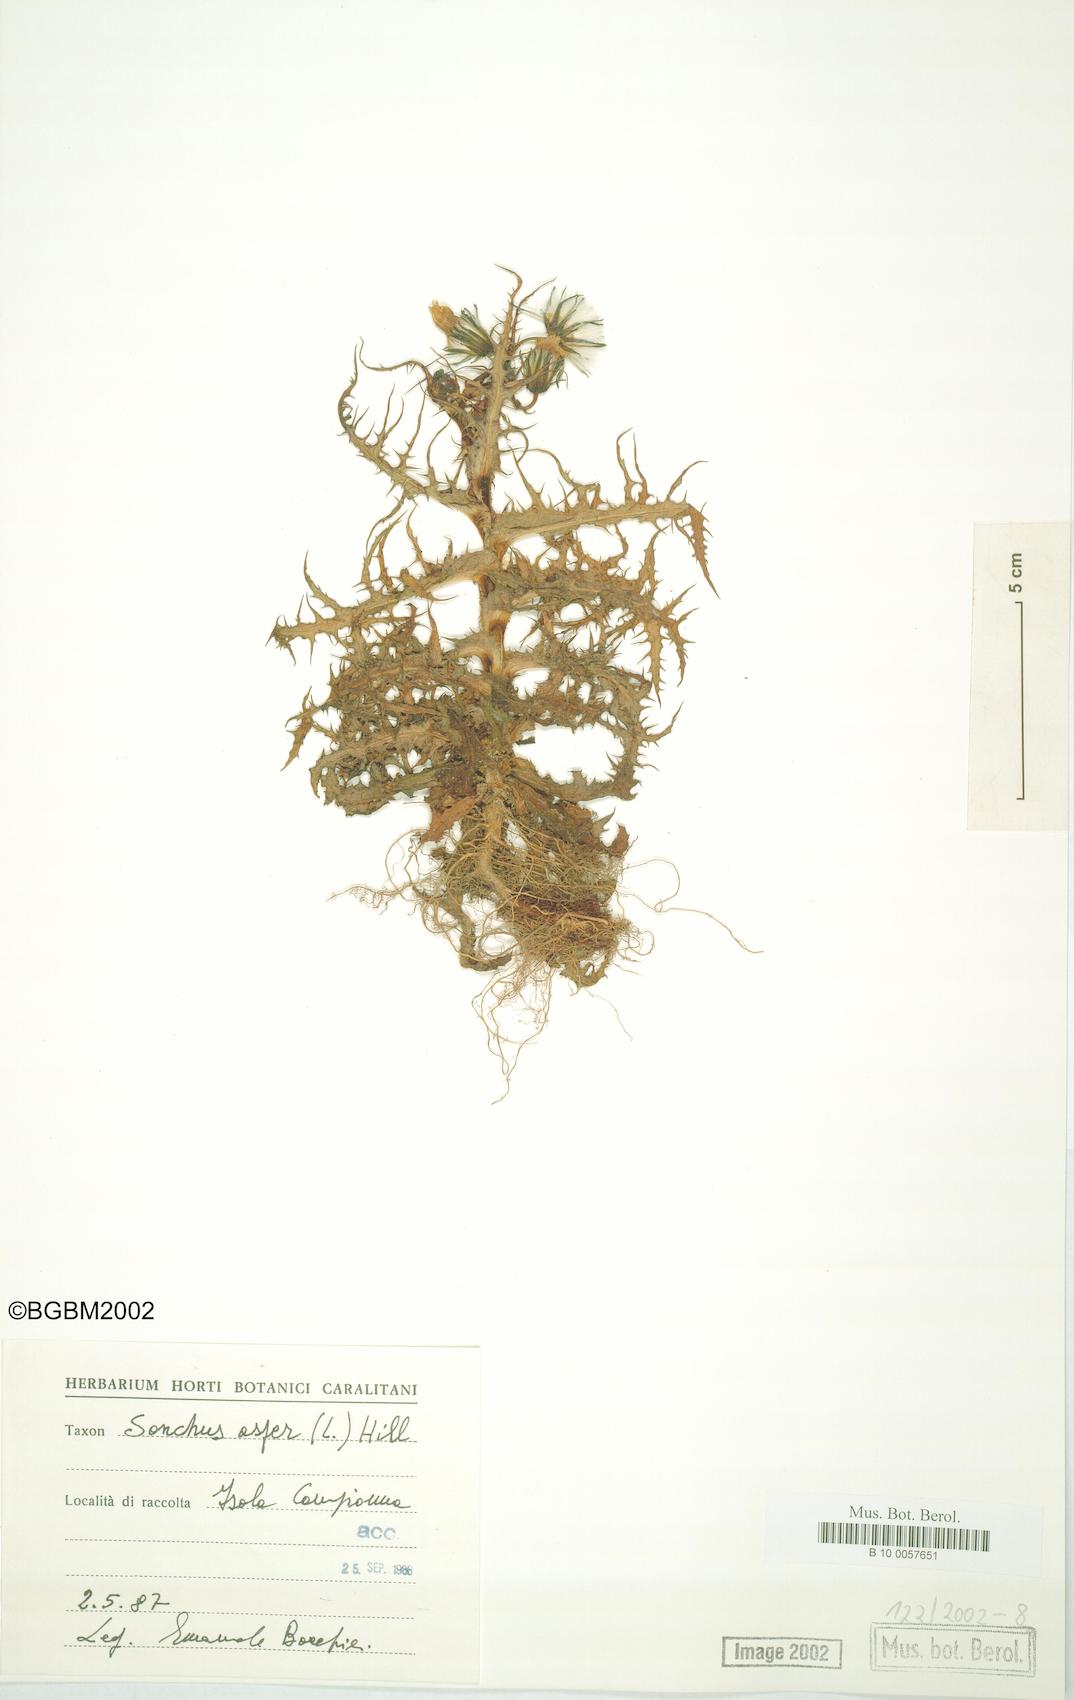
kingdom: Plantae
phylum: Tracheophyta
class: Magnoliopsida
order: Asterales
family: Asteraceae
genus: Sonchus
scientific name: Sonchus asper
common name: Prickly sow-thistle
